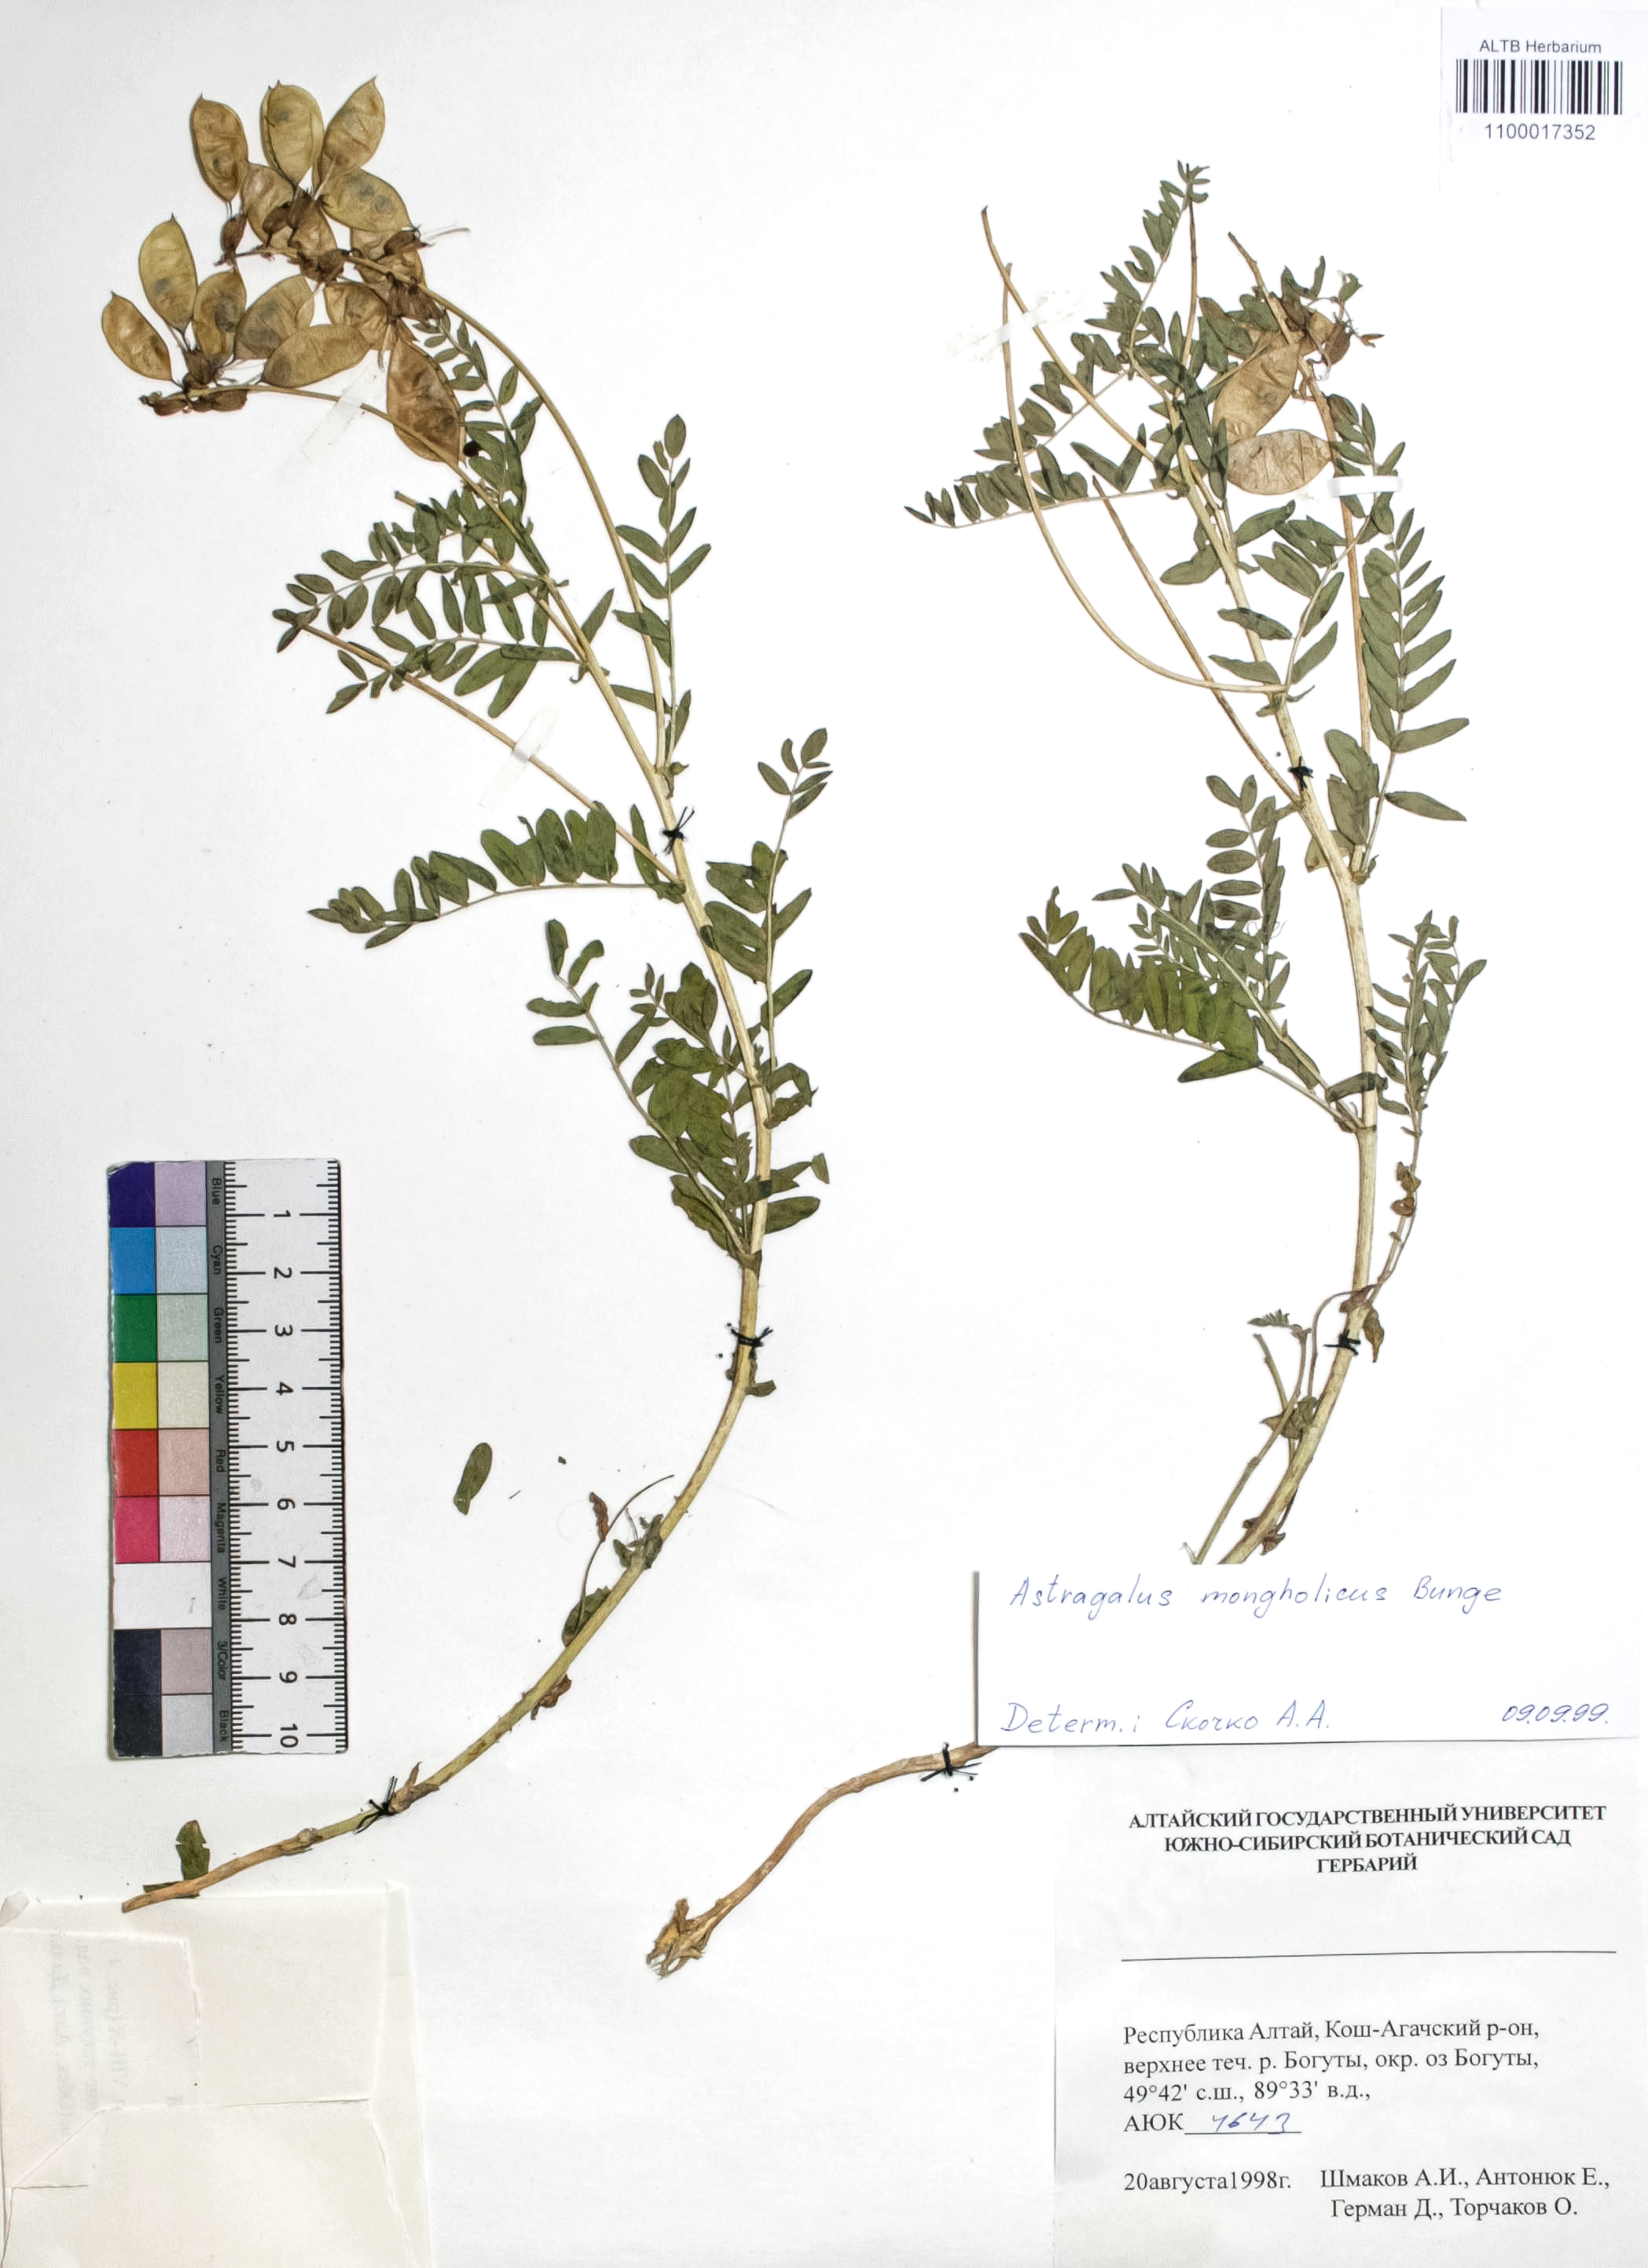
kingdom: Plantae
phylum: Tracheophyta
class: Magnoliopsida
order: Fabales
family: Fabaceae
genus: Astragalus
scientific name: Astragalus monophyllus
